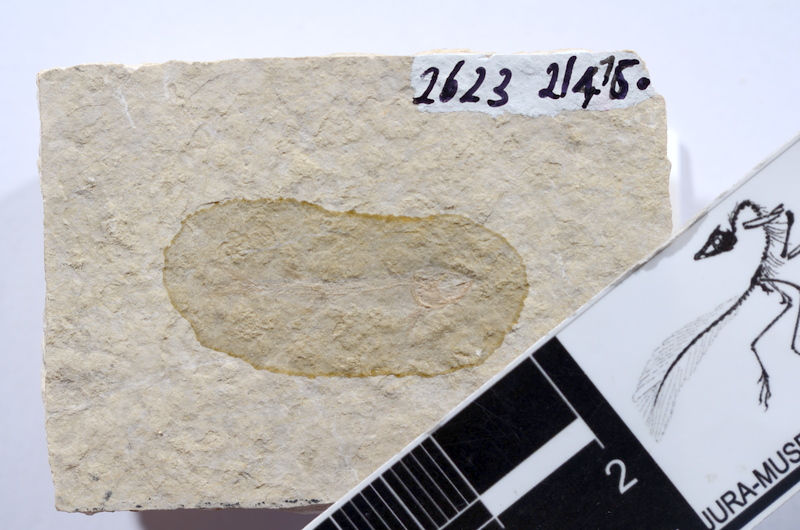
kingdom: Animalia
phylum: Chordata
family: Allothrissopidae
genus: Allothrissops
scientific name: Allothrissops mesogaster
